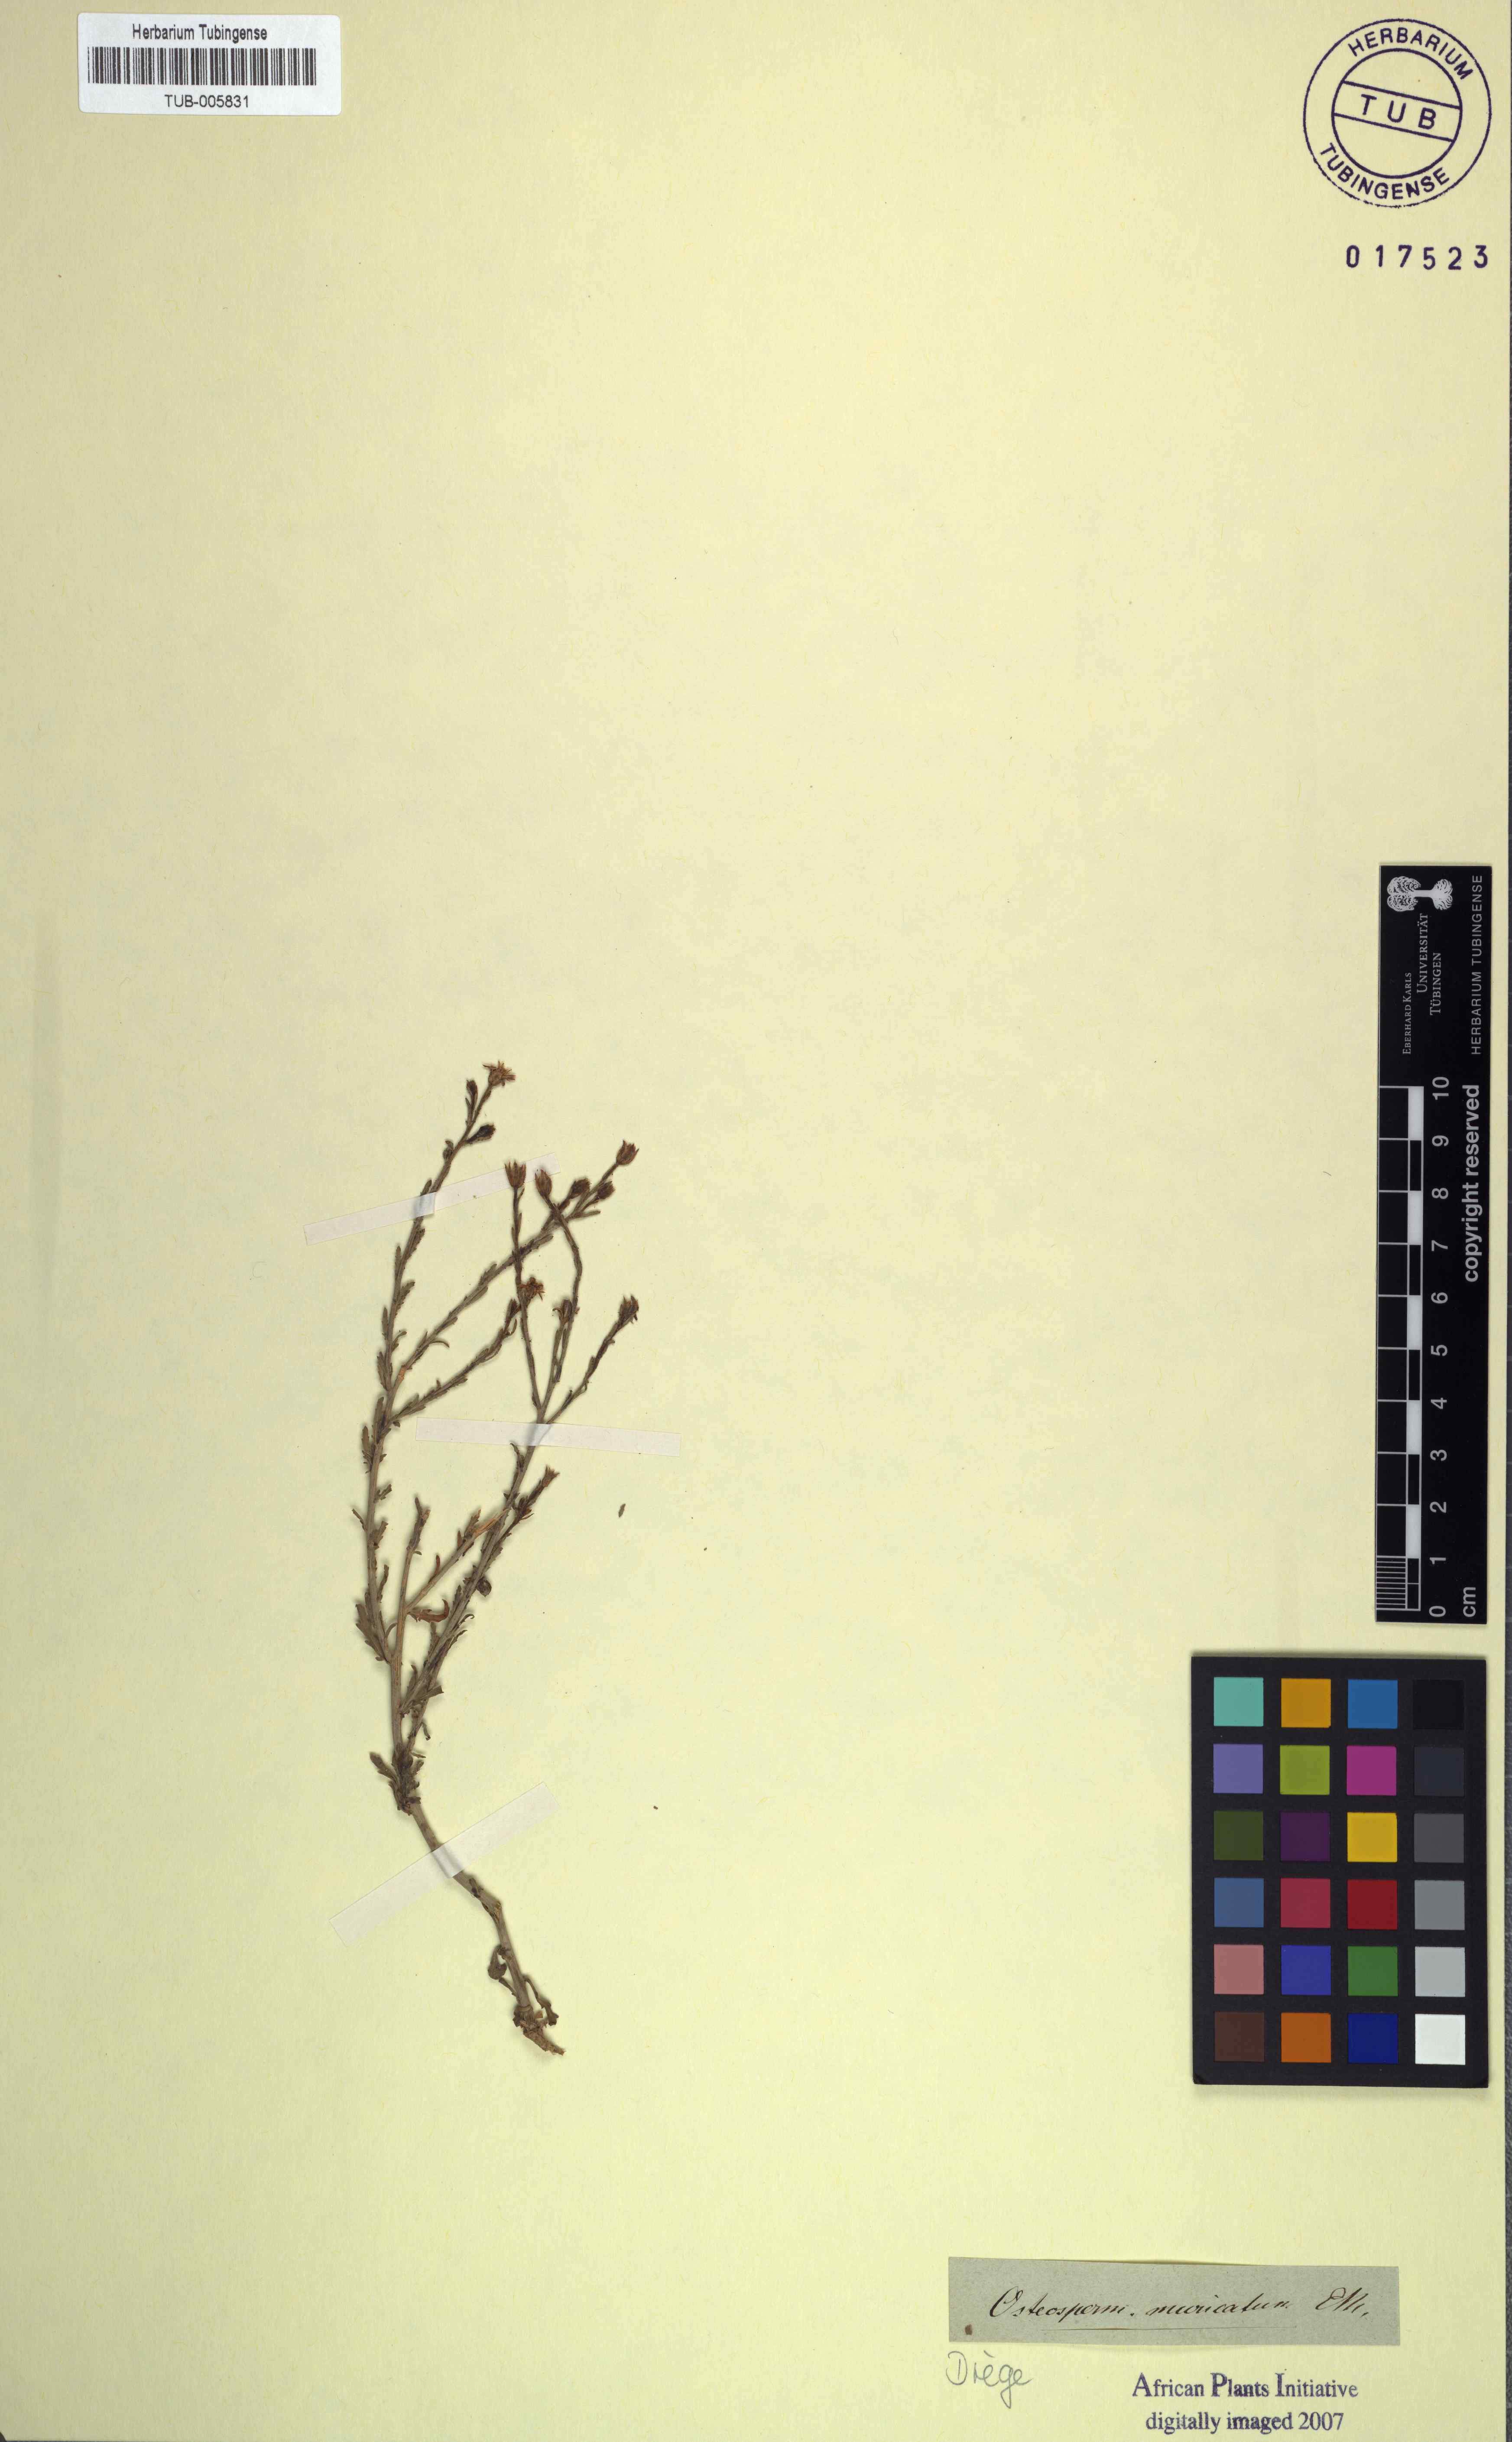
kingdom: Plantae
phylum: Tracheophyta
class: Magnoliopsida
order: Asterales
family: Asteraceae
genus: Osteospermum
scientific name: Osteospermum muricatum
